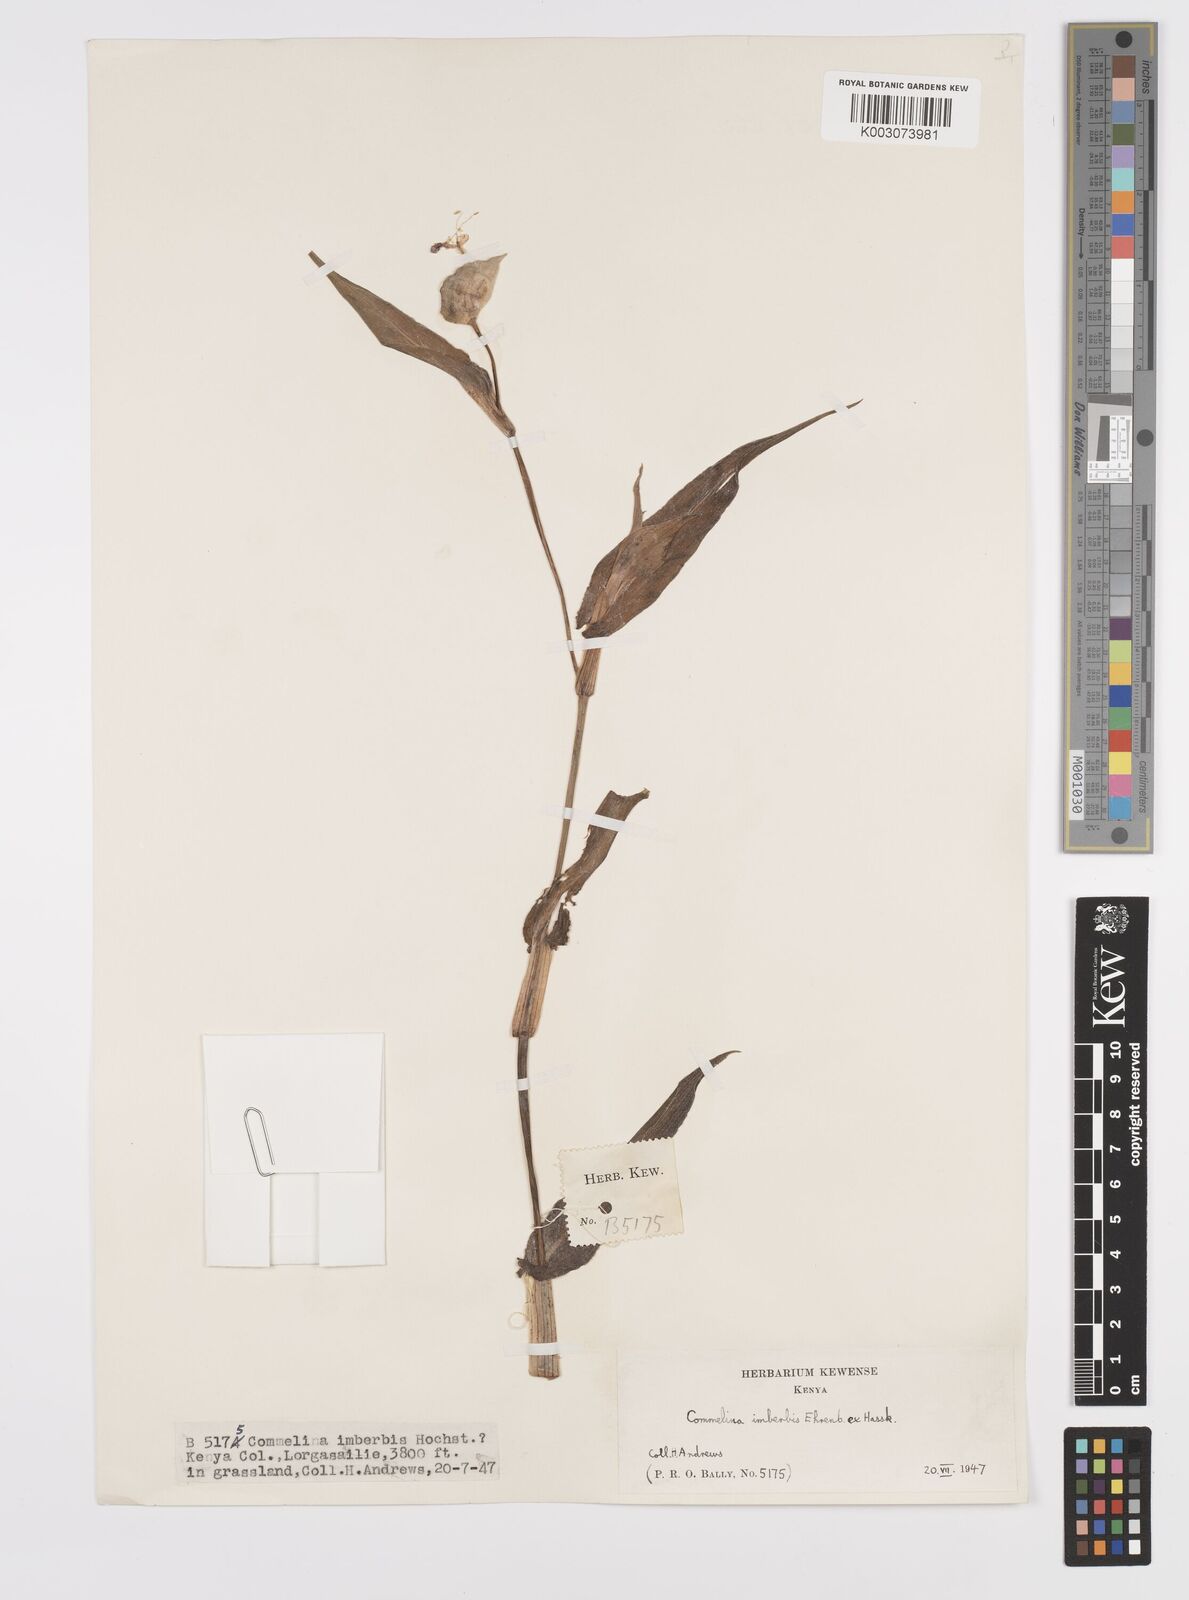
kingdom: Plantae
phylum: Tracheophyta
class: Liliopsida
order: Commelinales
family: Commelinaceae
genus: Commelina
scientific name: Commelina imberbis
